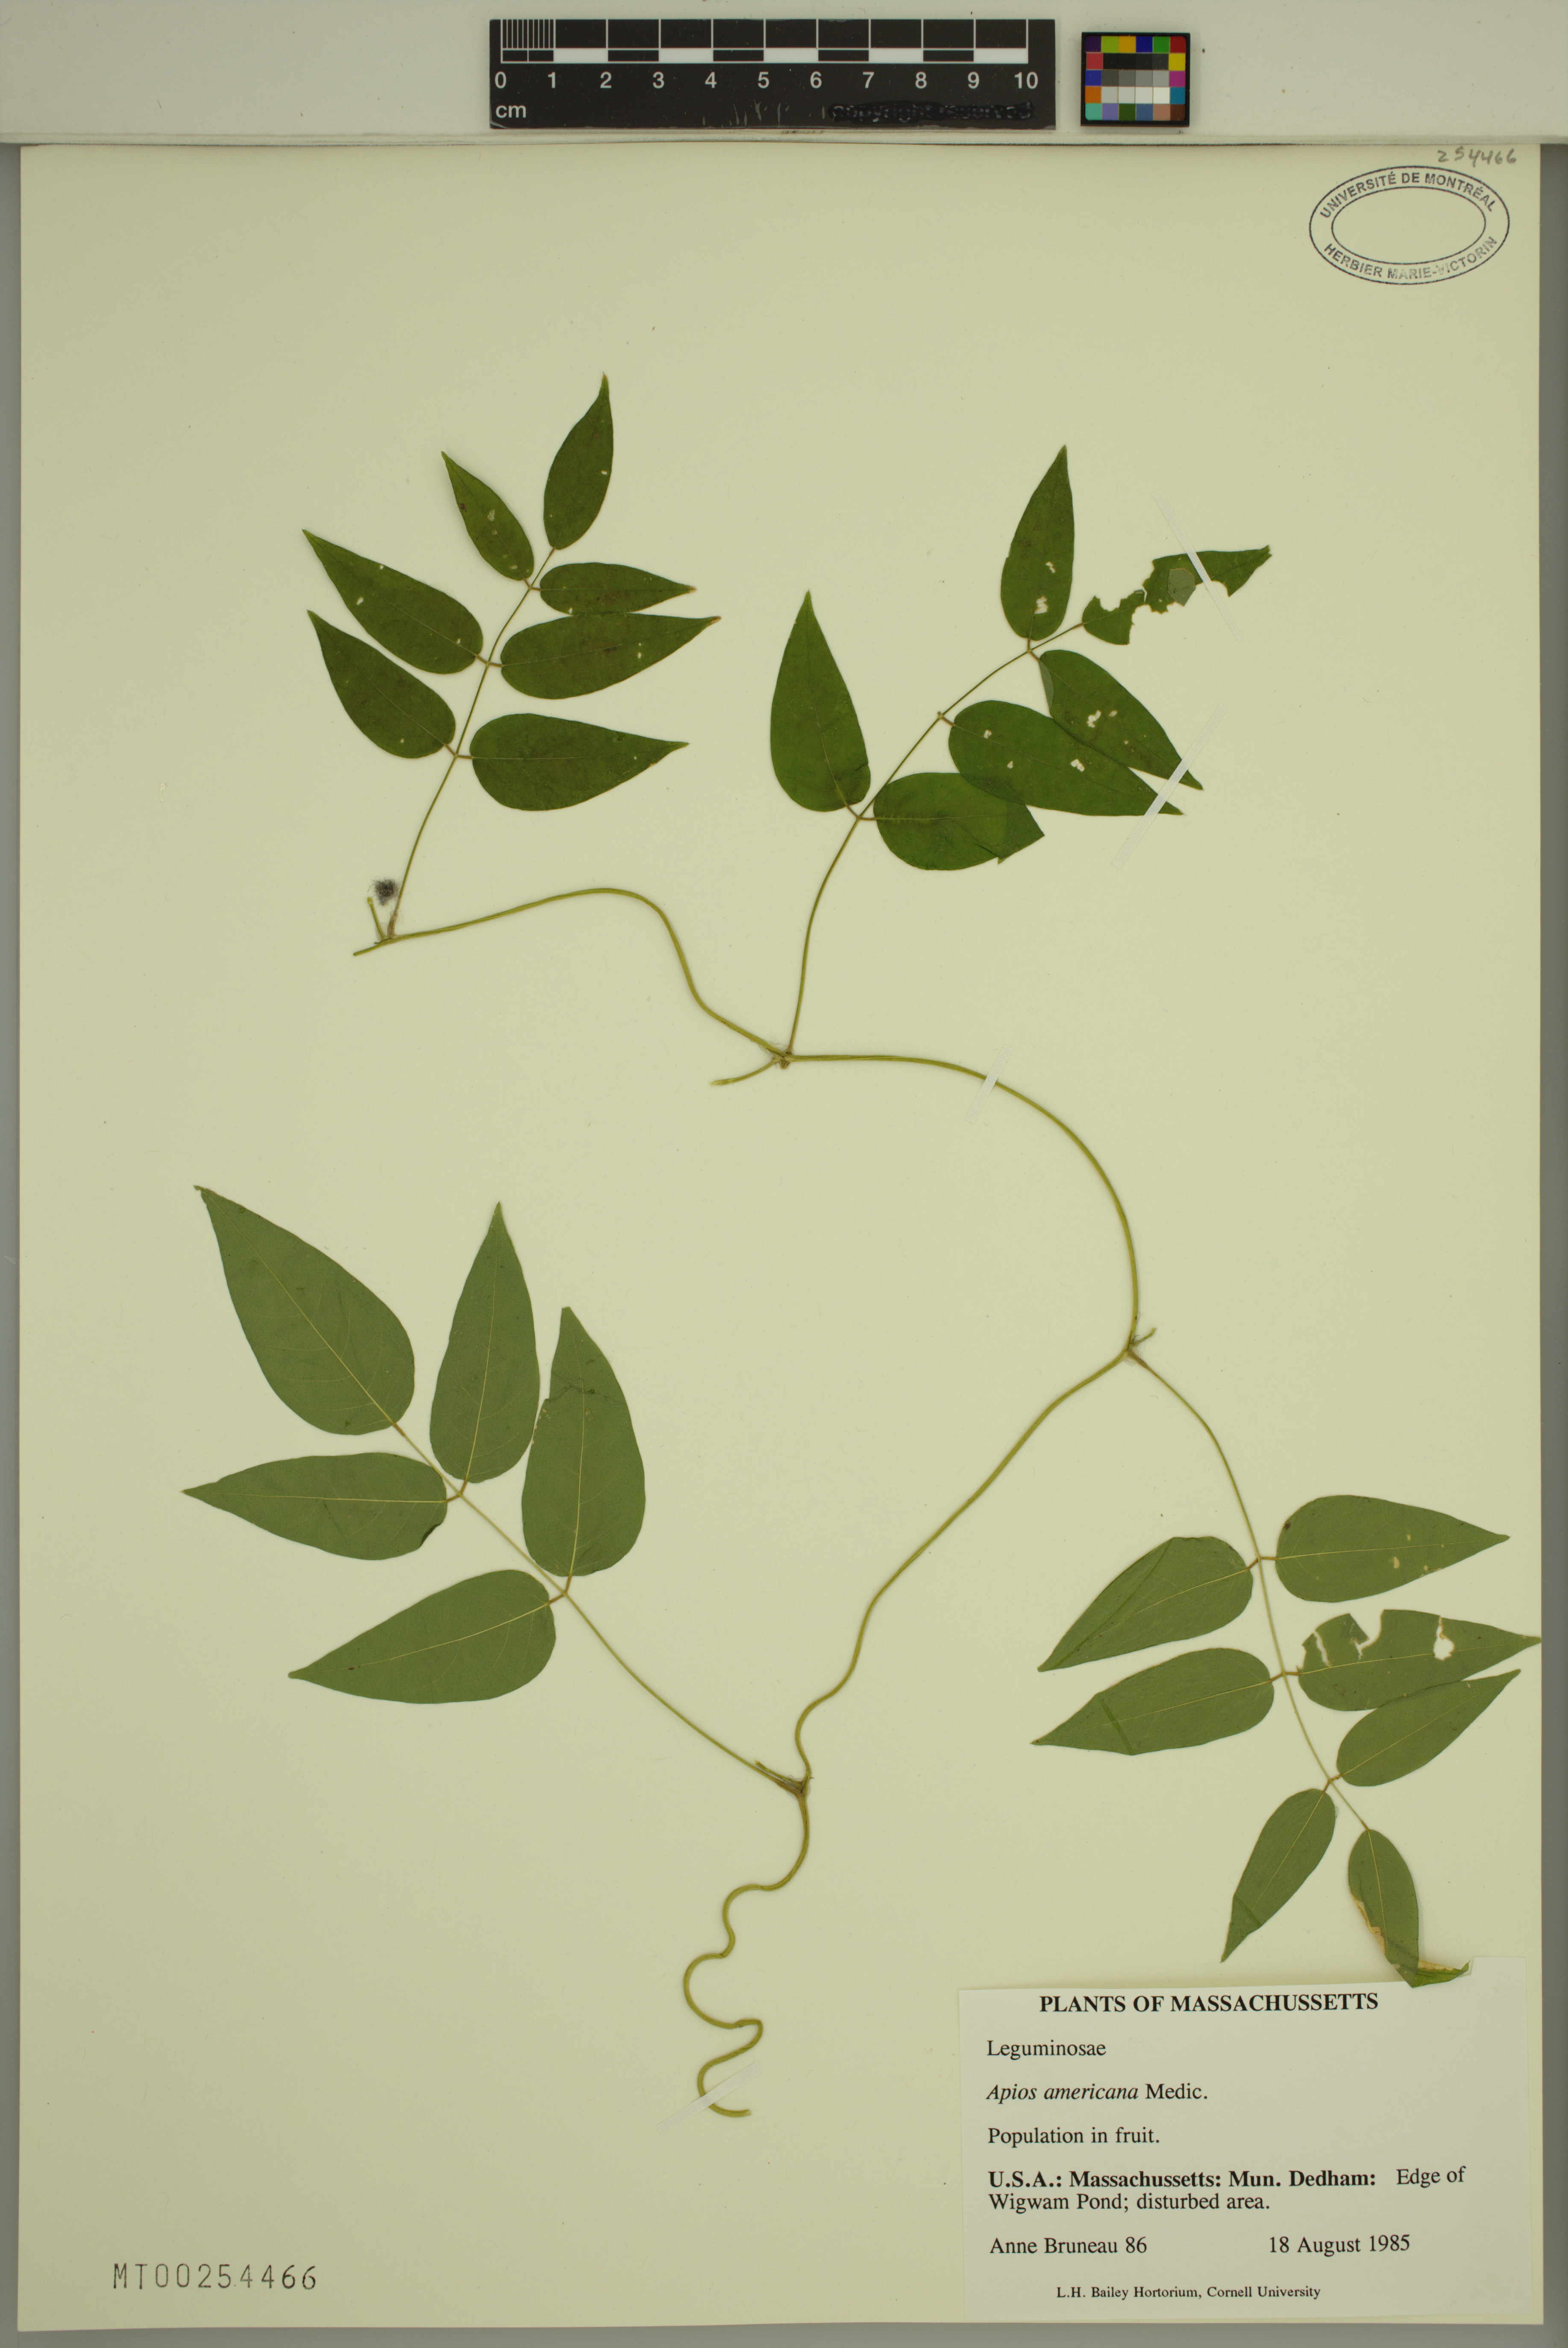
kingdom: Plantae
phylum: Tracheophyta
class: Magnoliopsida
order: Fabales
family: Fabaceae
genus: Apios
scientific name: Apios americana
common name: American potato-bean
